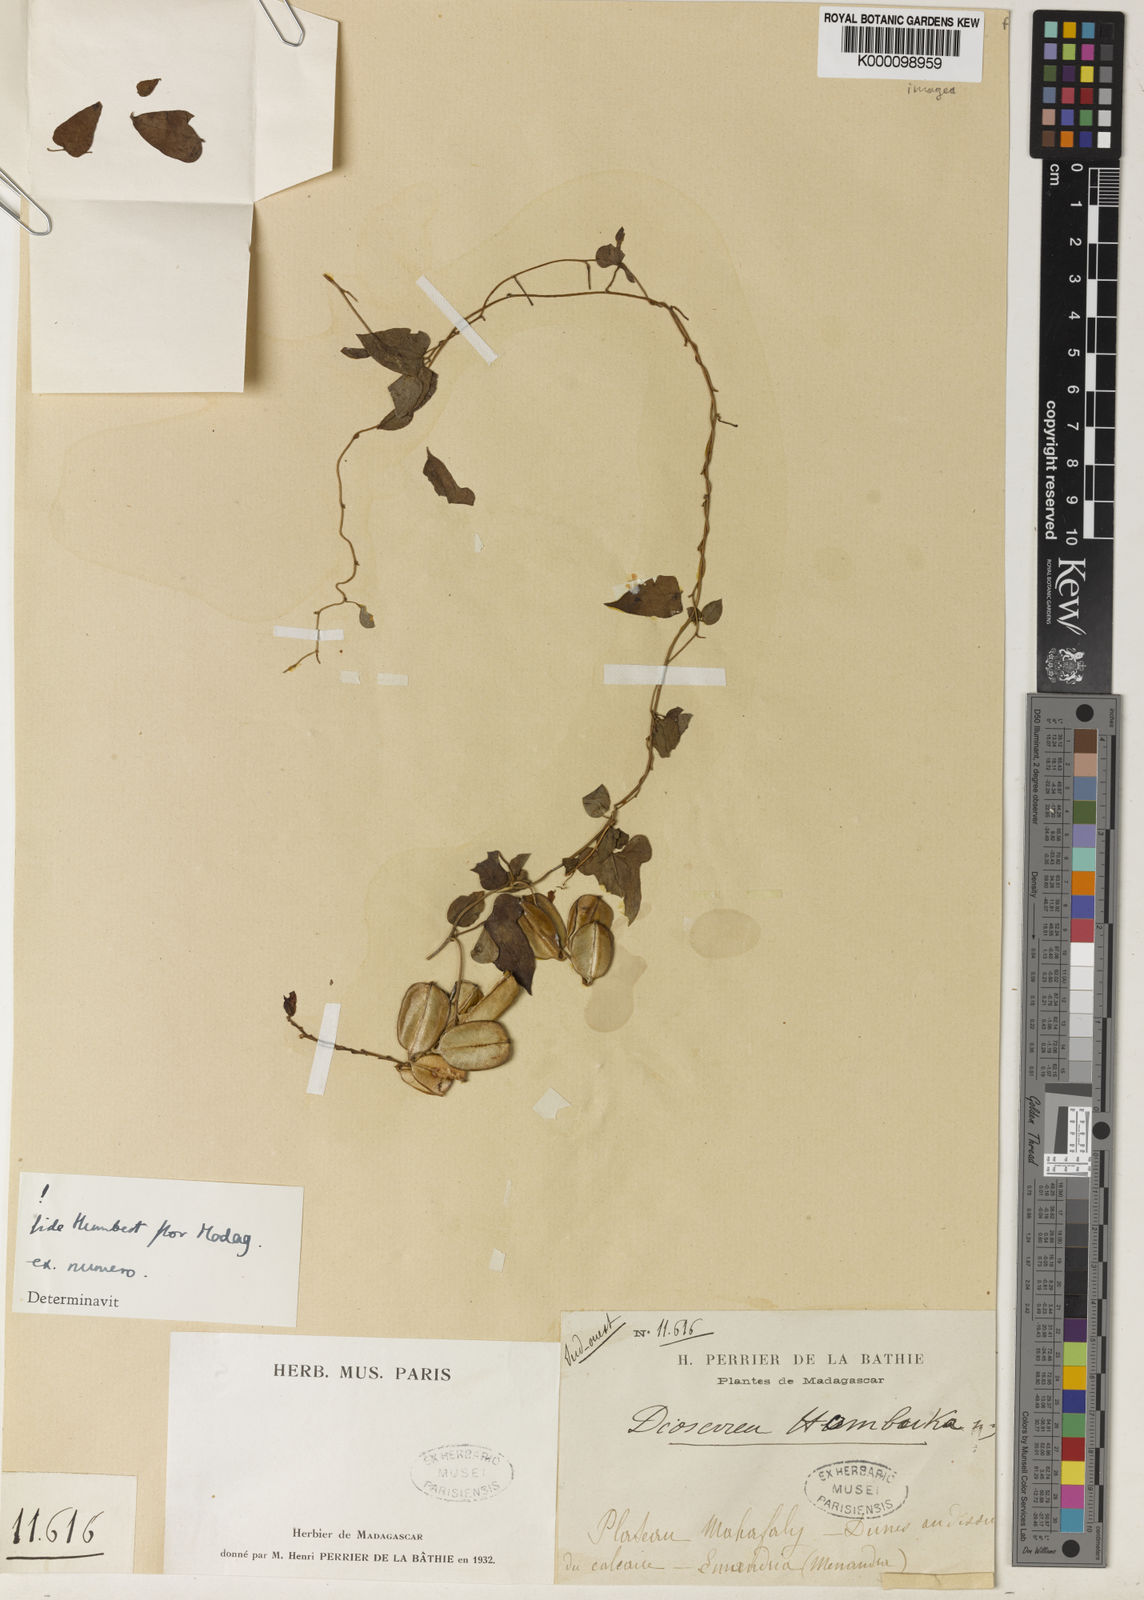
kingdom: Plantae
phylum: Tracheophyta
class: Liliopsida
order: Dioscoreales
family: Dioscoreaceae
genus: Dioscorea
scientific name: Dioscorea hombuka
